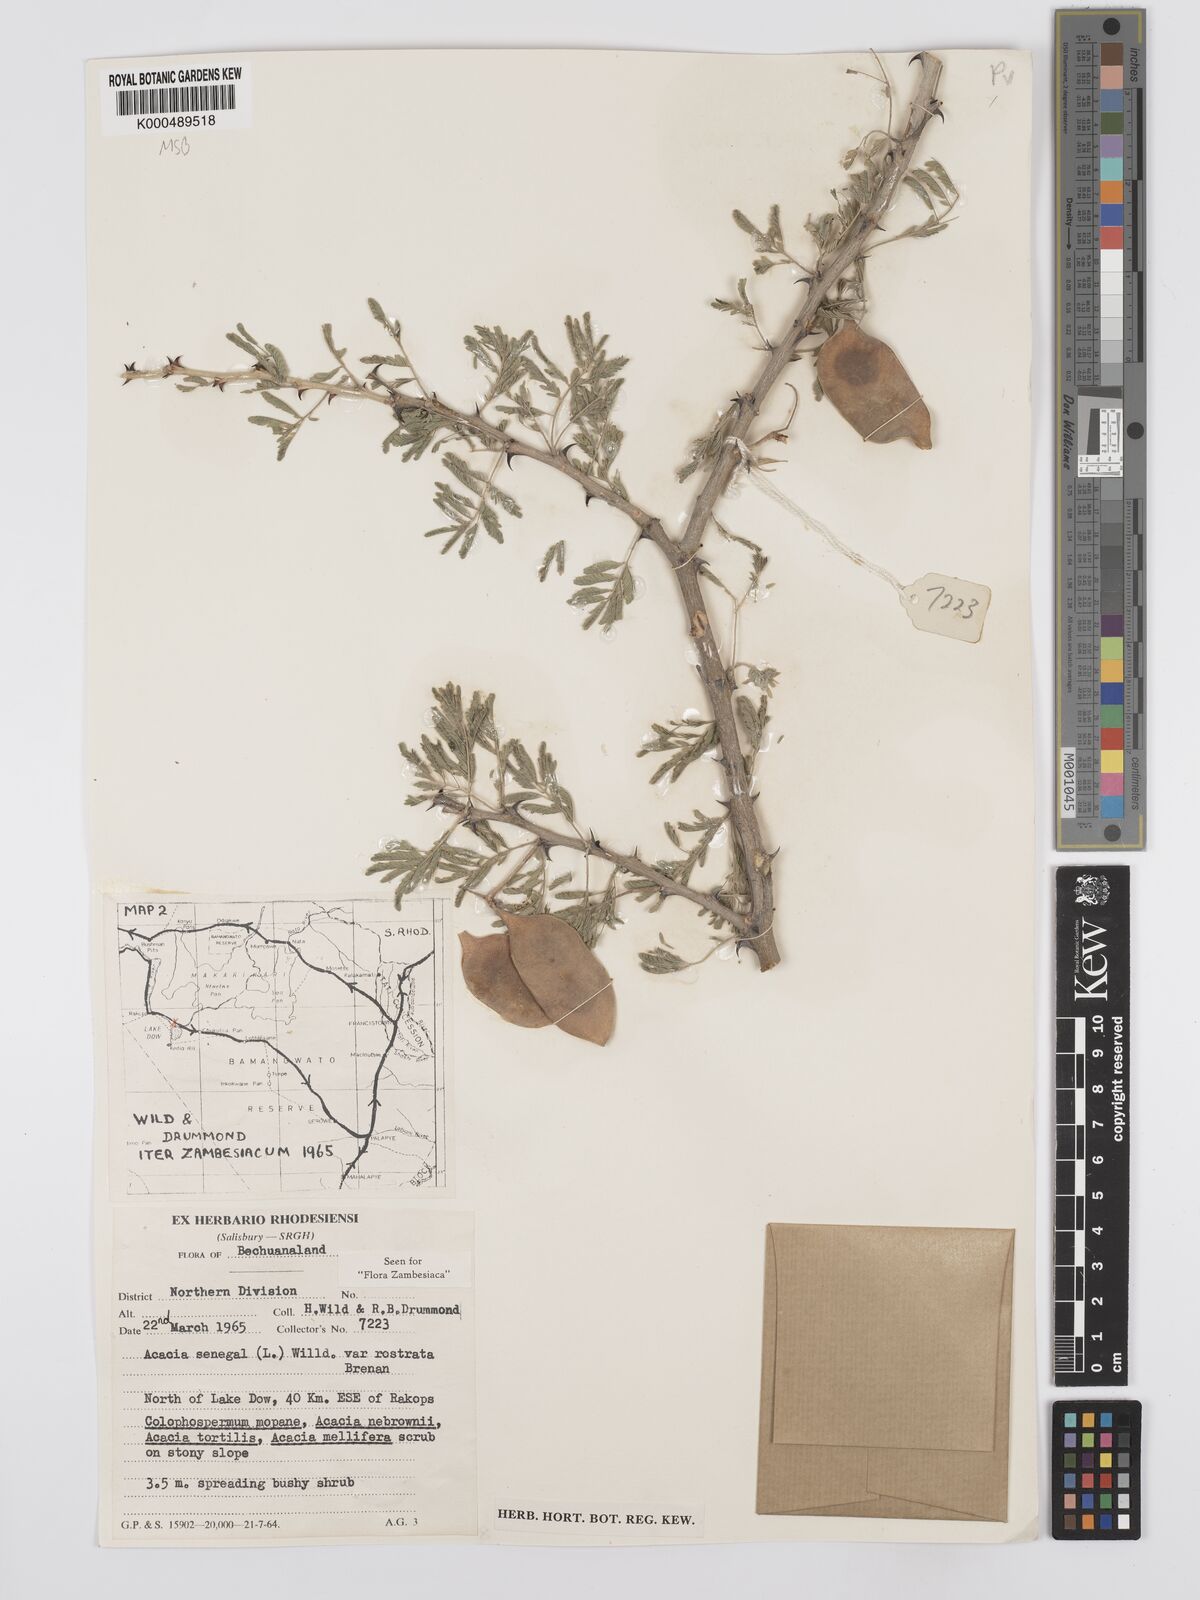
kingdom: Plantae
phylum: Tracheophyta
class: Magnoliopsida
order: Fabales
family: Fabaceae
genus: Senegalia
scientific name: Senegalia senegal
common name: Senegal-gum
